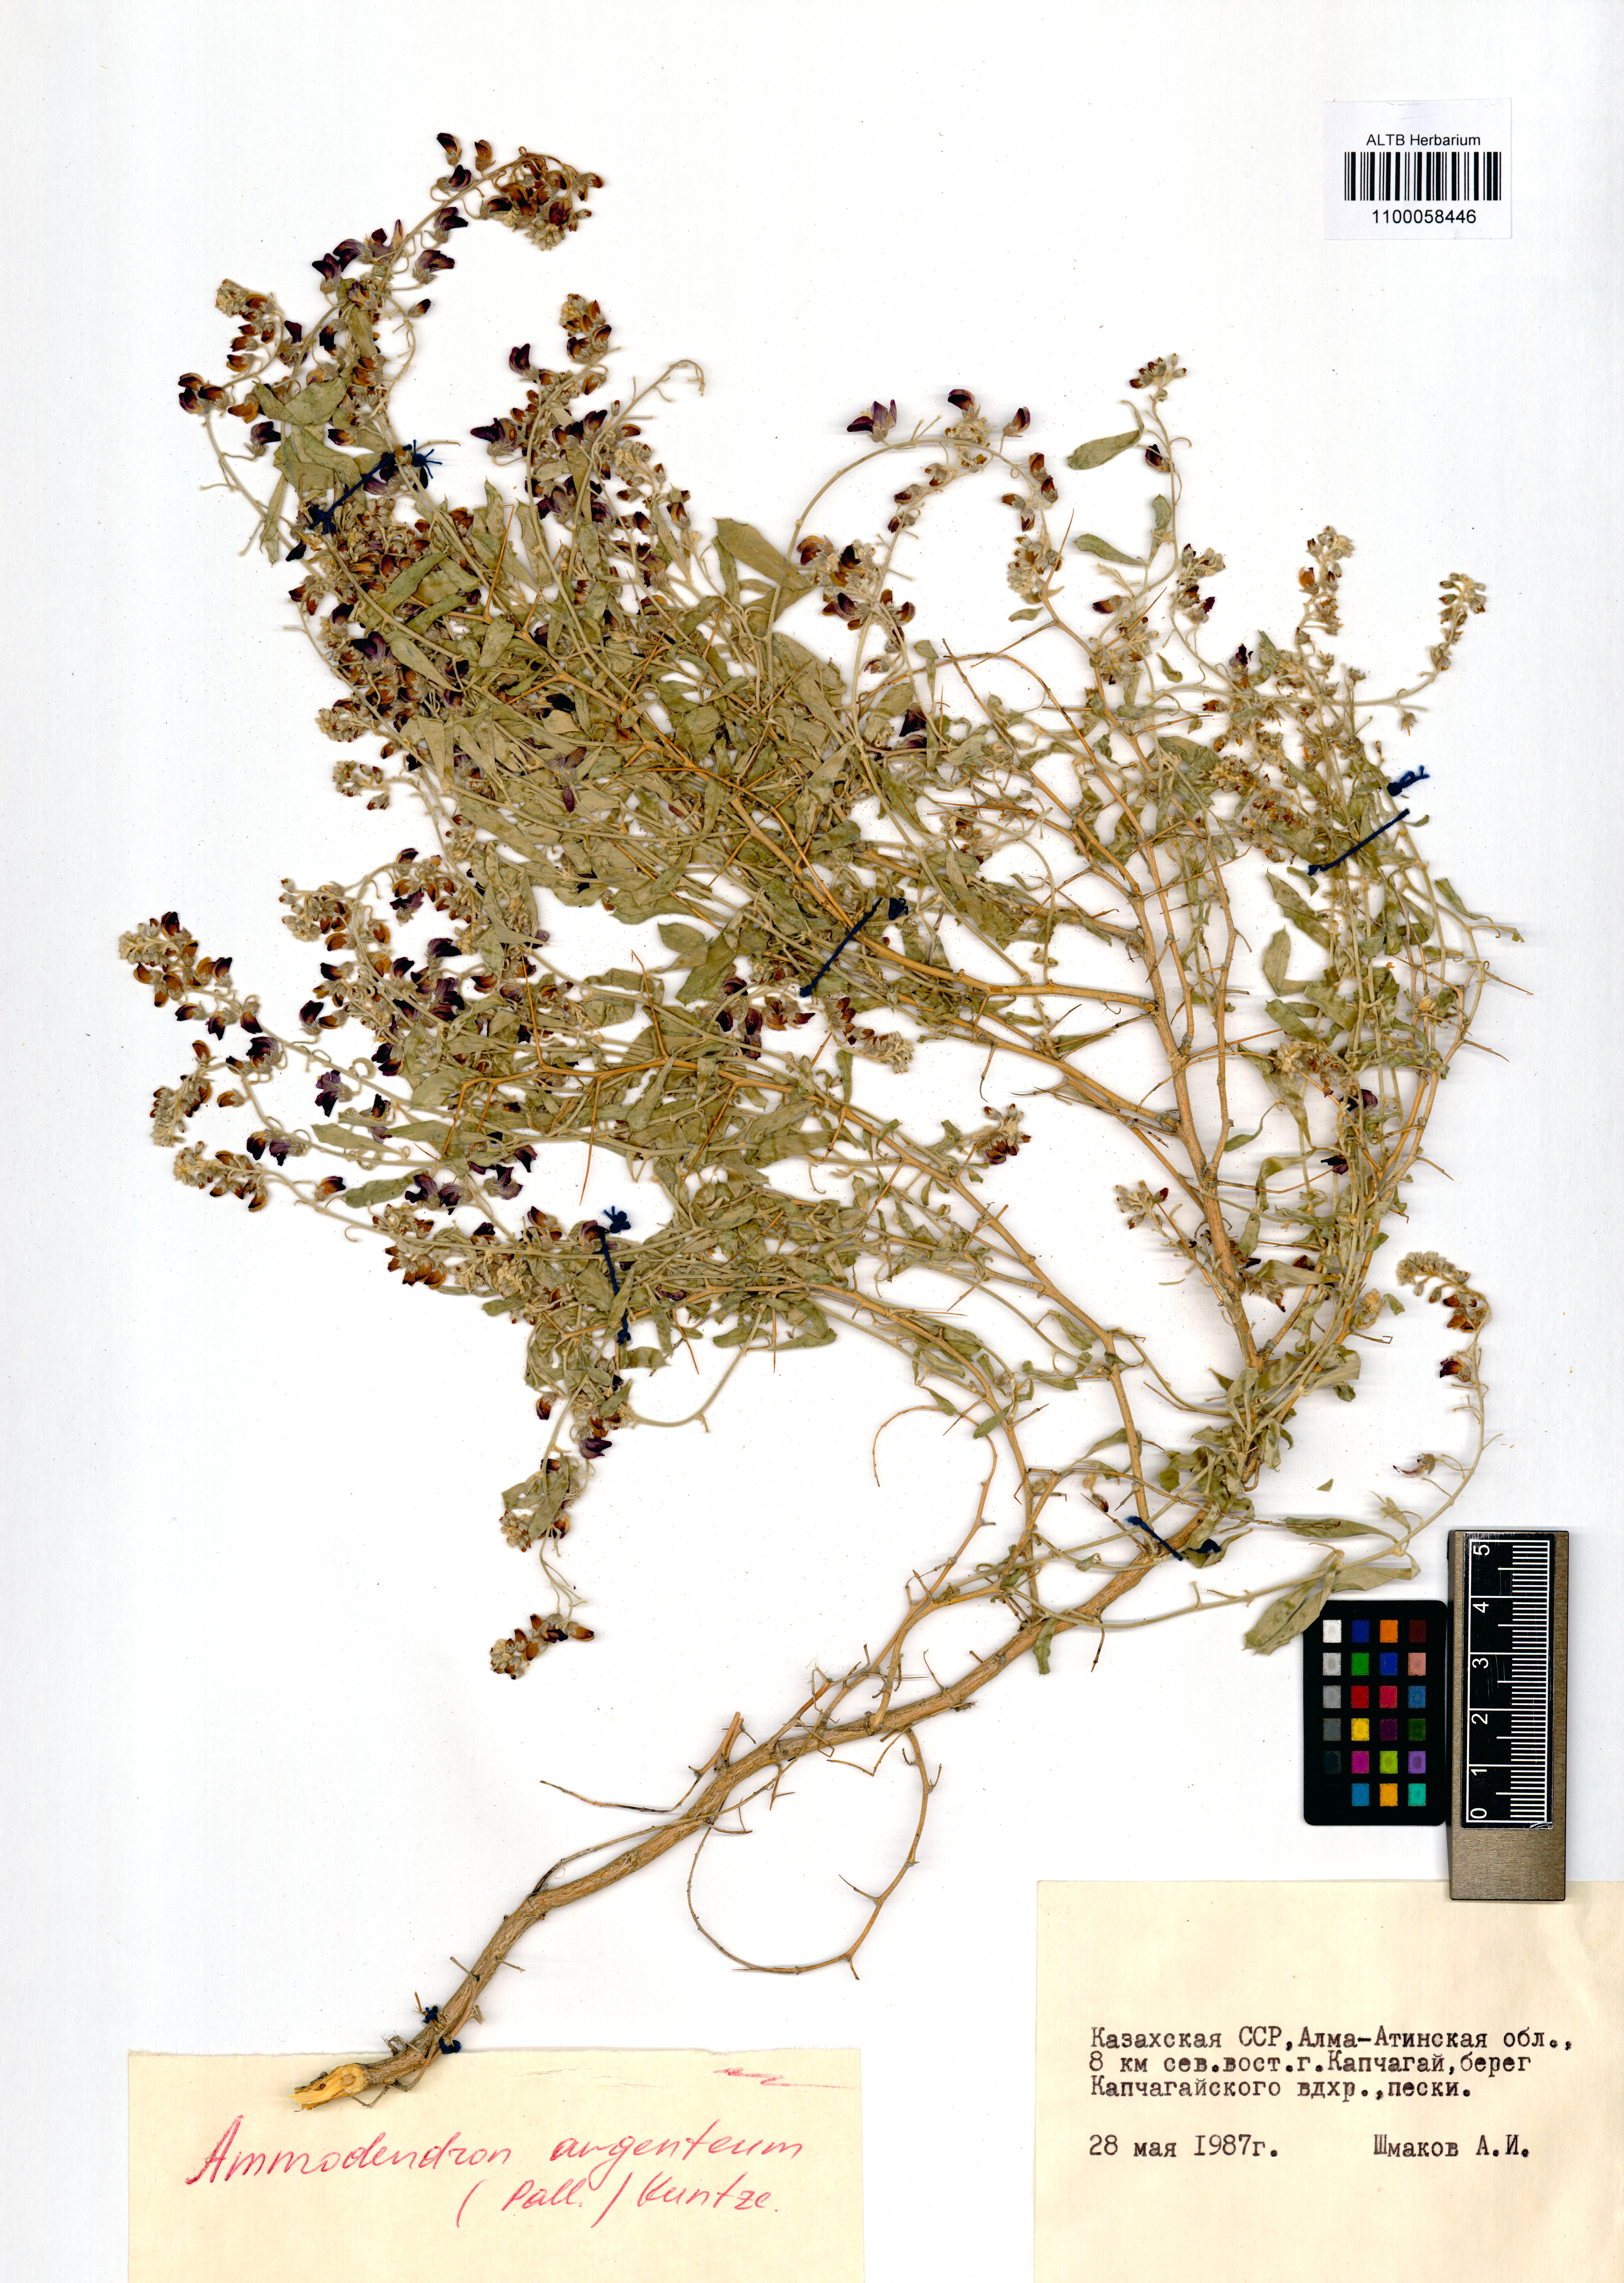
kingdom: Plantae
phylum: Tracheophyta
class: Magnoliopsida
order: Fabales
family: Fabaceae
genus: Ammodendron
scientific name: Ammodendron bifolium
